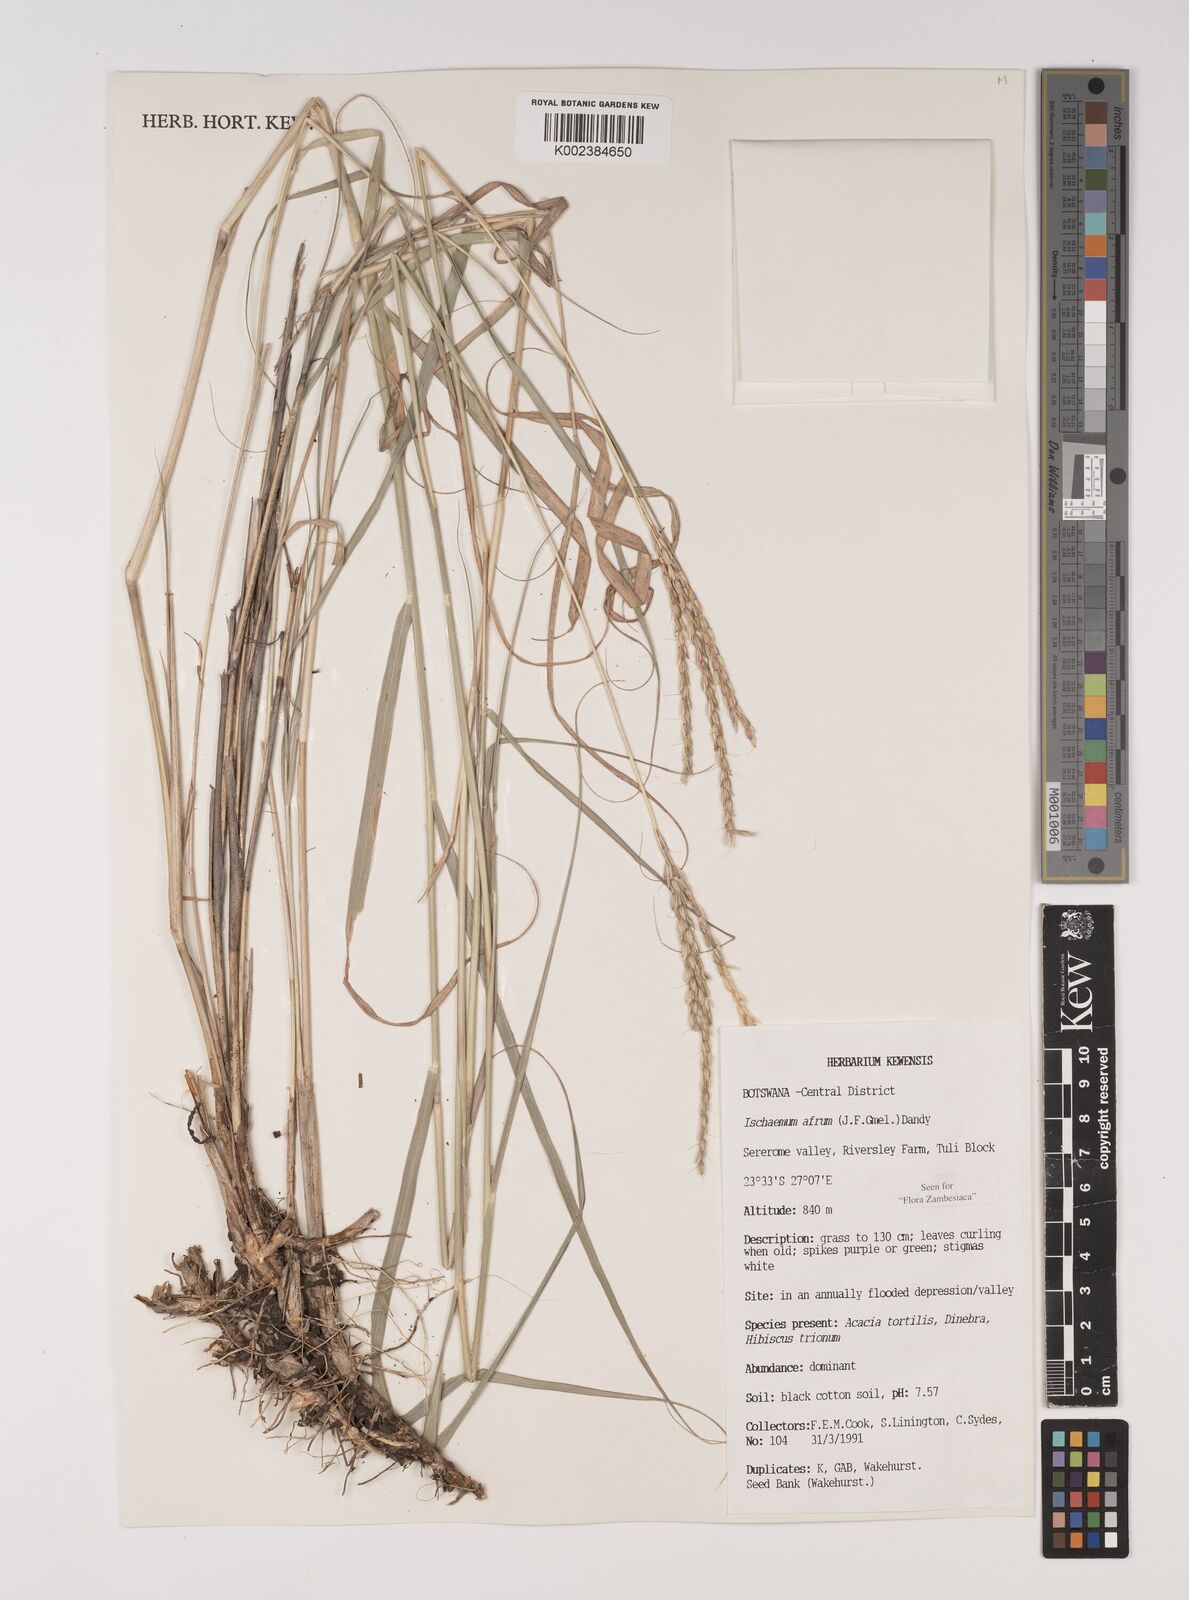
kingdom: Plantae
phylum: Tracheophyta
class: Liliopsida
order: Poales
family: Poaceae
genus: Ischaemum
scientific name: Ischaemum afrum
